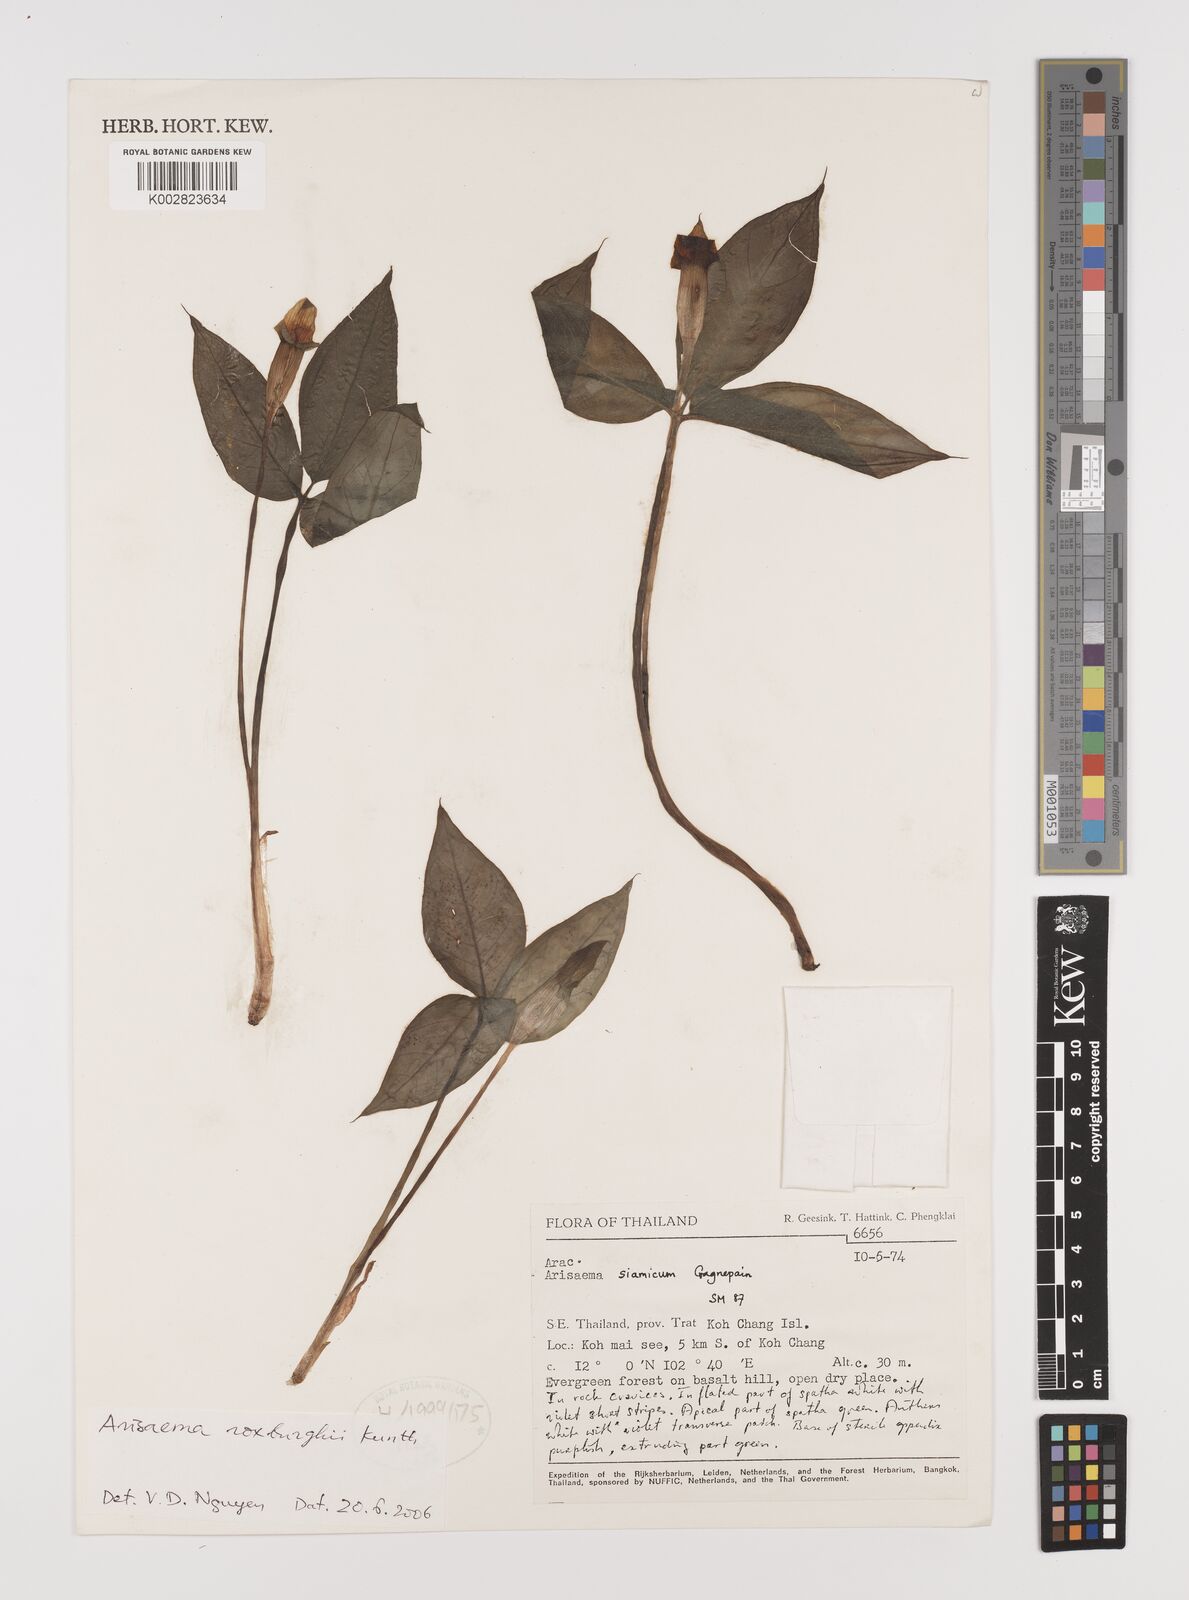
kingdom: Plantae
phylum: Tracheophyta
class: Liliopsida
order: Alismatales
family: Araceae
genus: Arisaema
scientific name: Arisaema roxburghii
